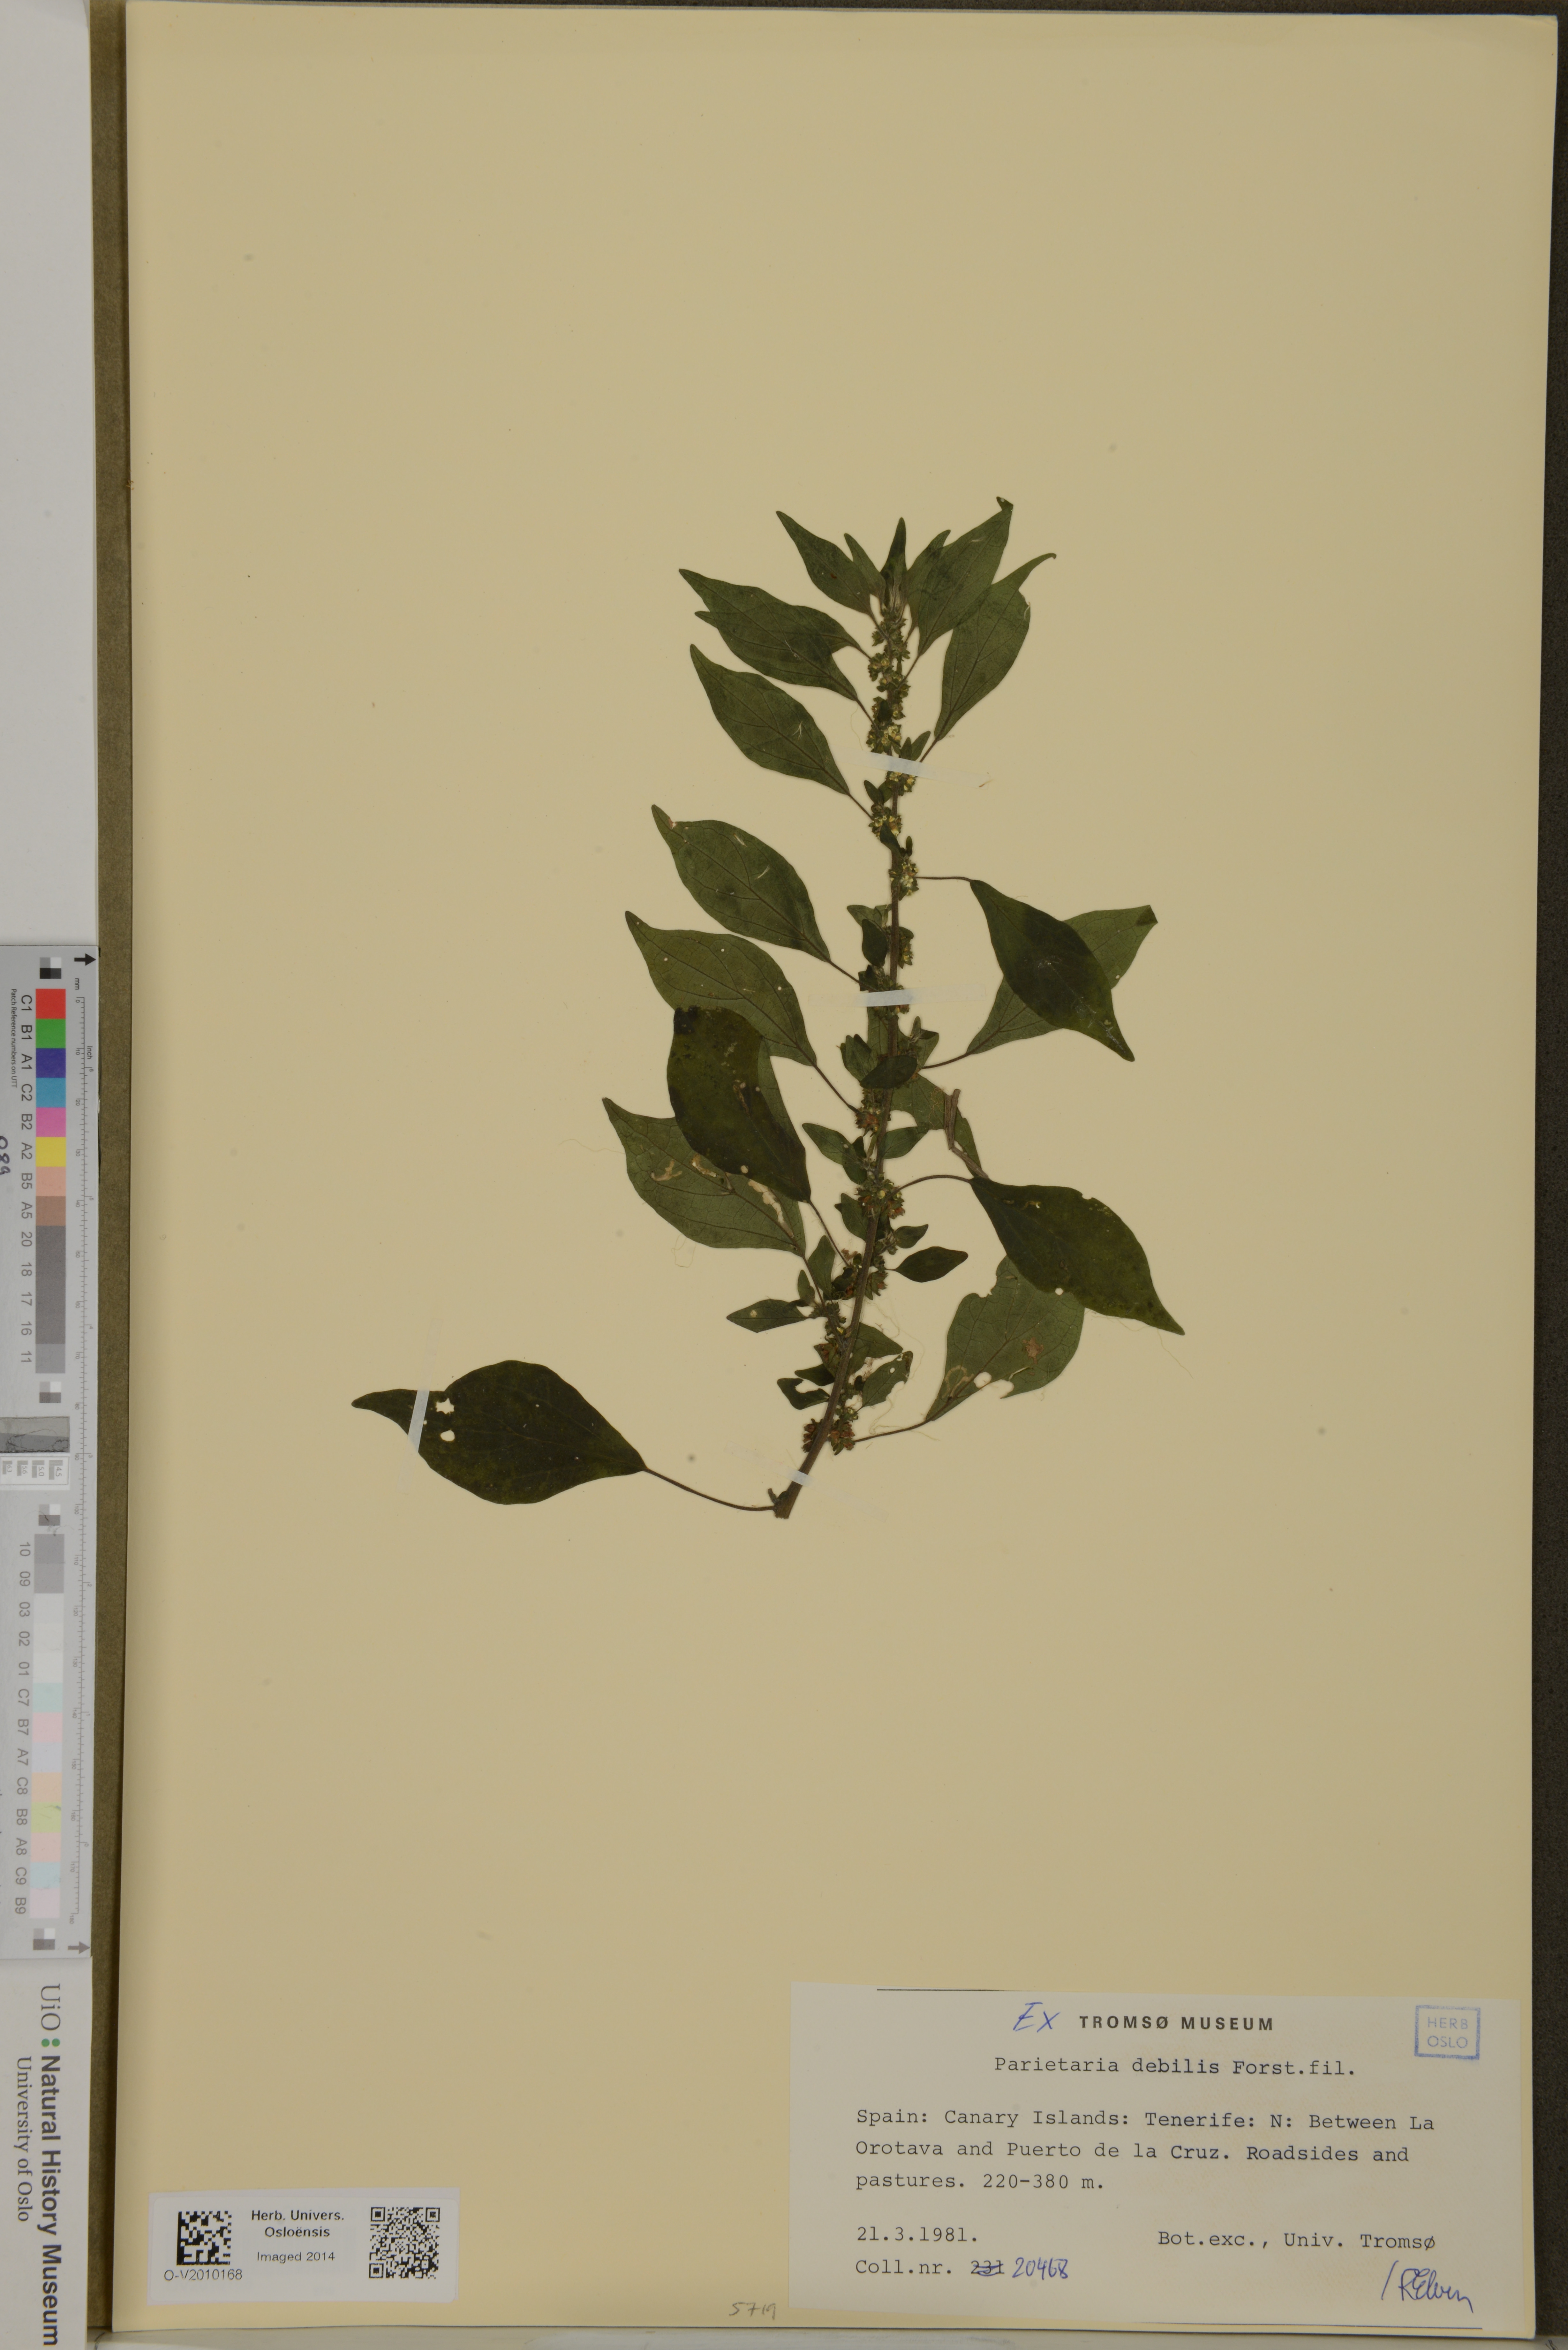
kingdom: Plantae
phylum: Tracheophyta
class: Magnoliopsida
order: Rosales
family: Urticaceae
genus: Parietaria
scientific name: Parietaria debilis
